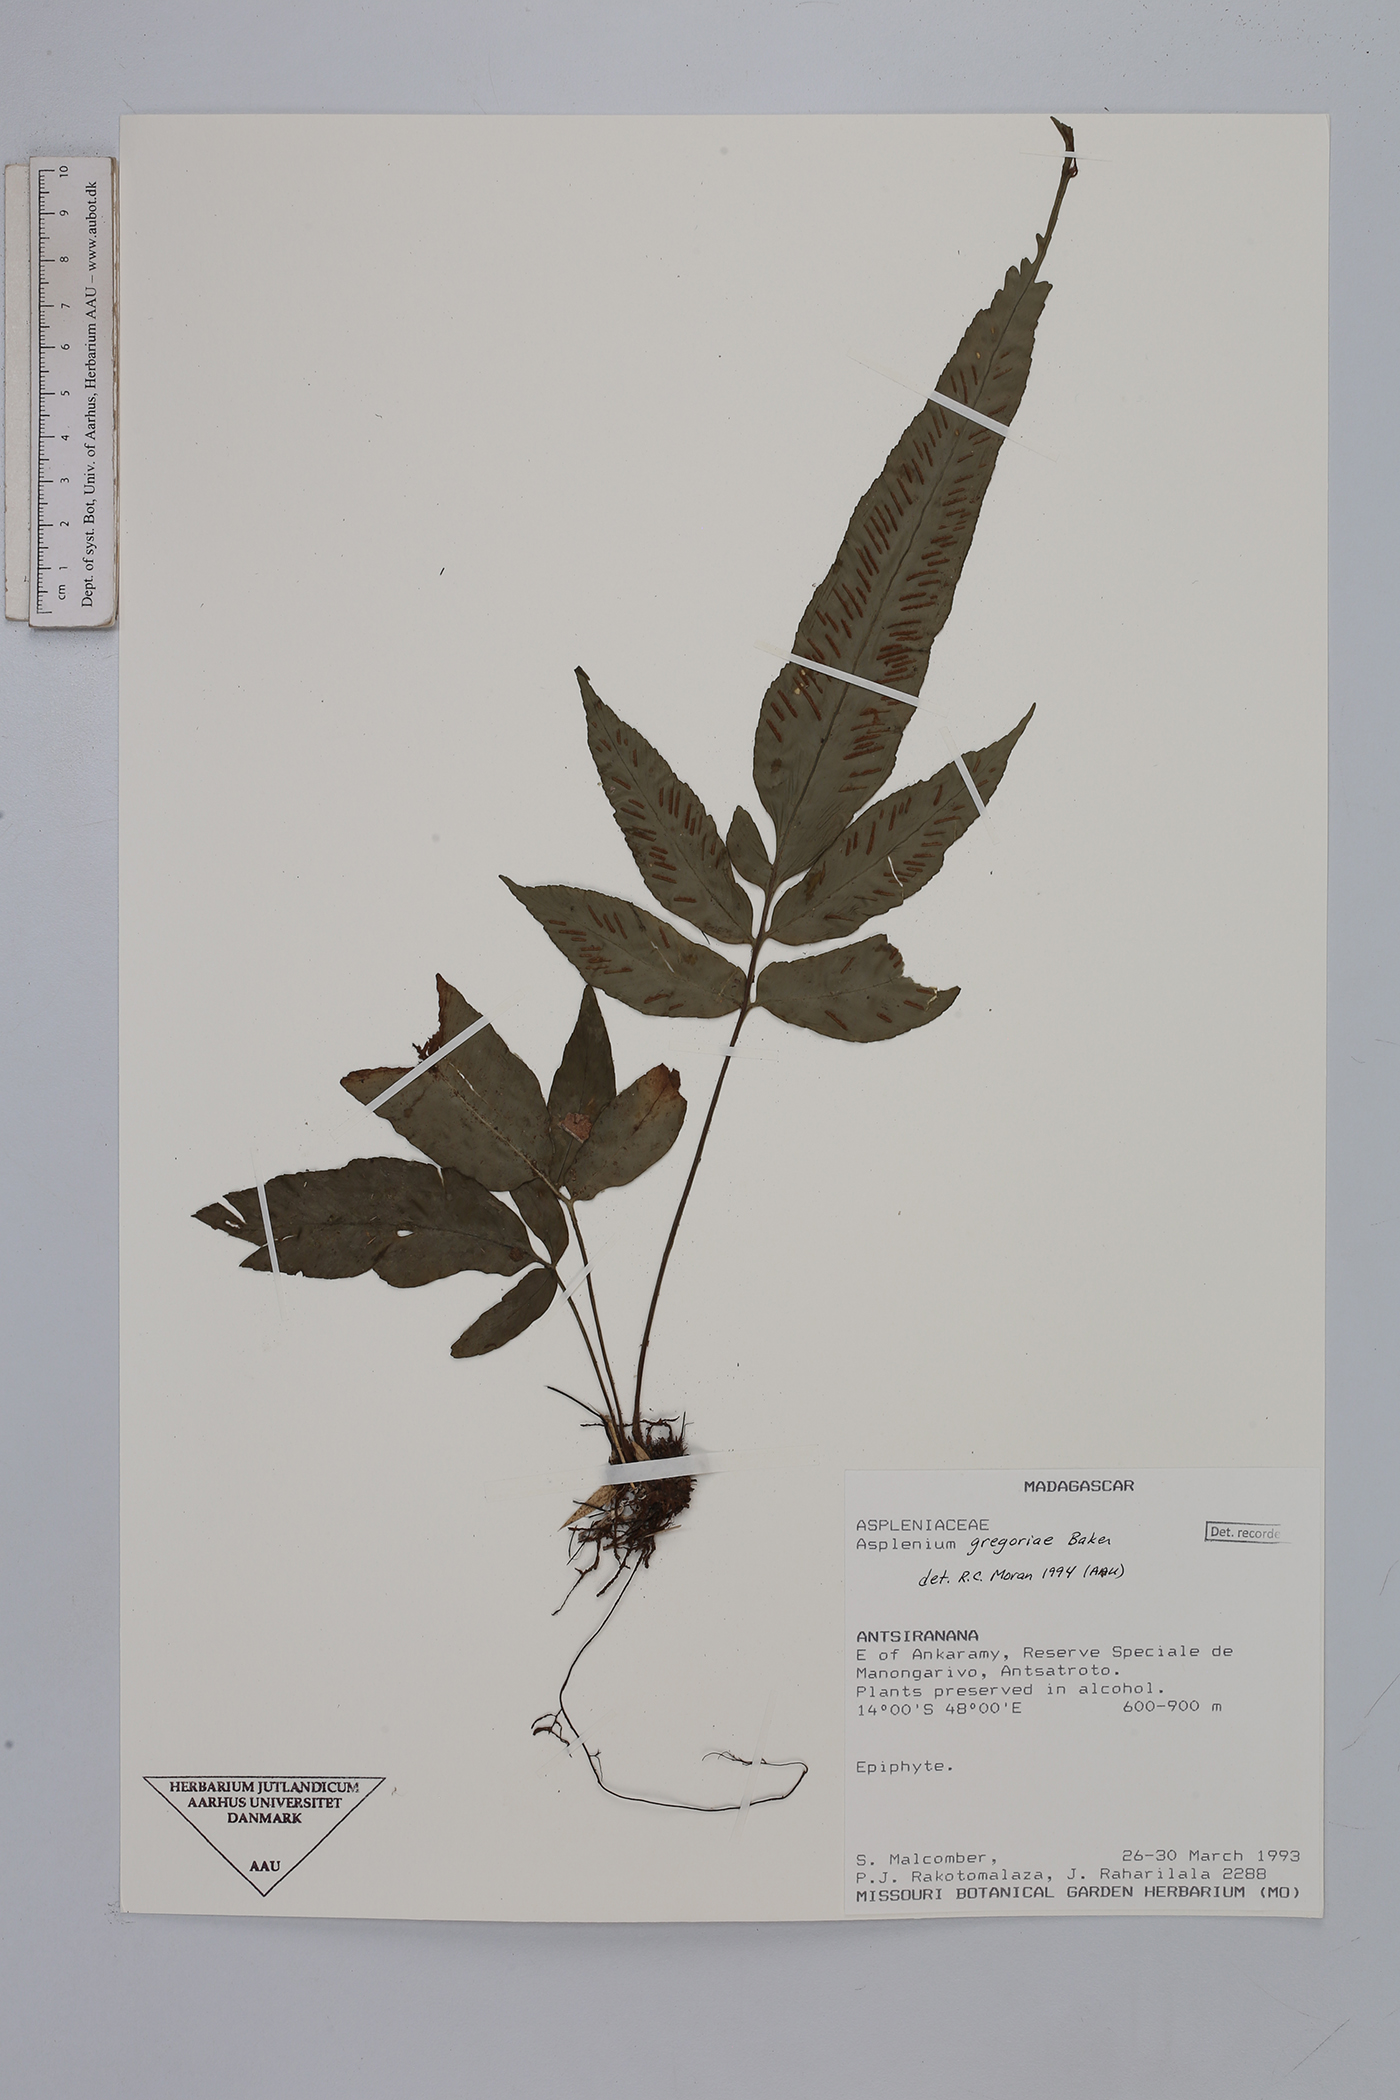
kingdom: Plantae
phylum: Tracheophyta
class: Polypodiopsida
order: Polypodiales
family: Aspleniaceae
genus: Asplenium
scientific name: Asplenium gregoriae
